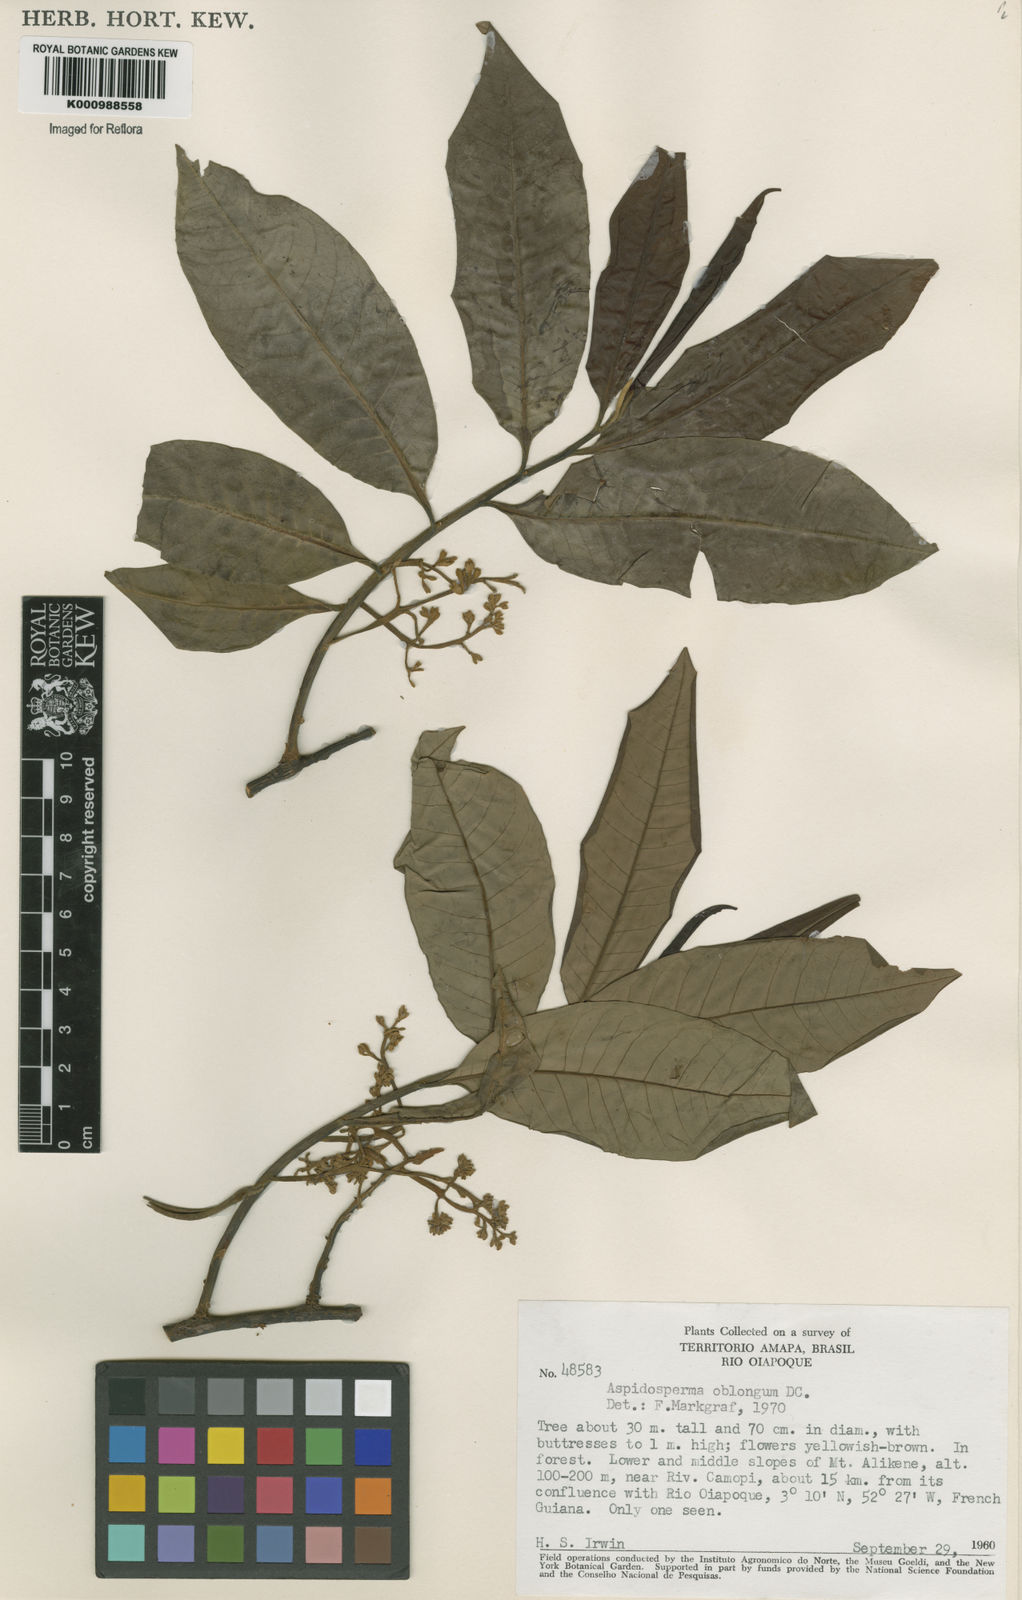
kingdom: Plantae
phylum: Tracheophyta
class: Magnoliopsida
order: Gentianales
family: Apocynaceae
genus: Aspidosperma
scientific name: Aspidosperma oblongum
